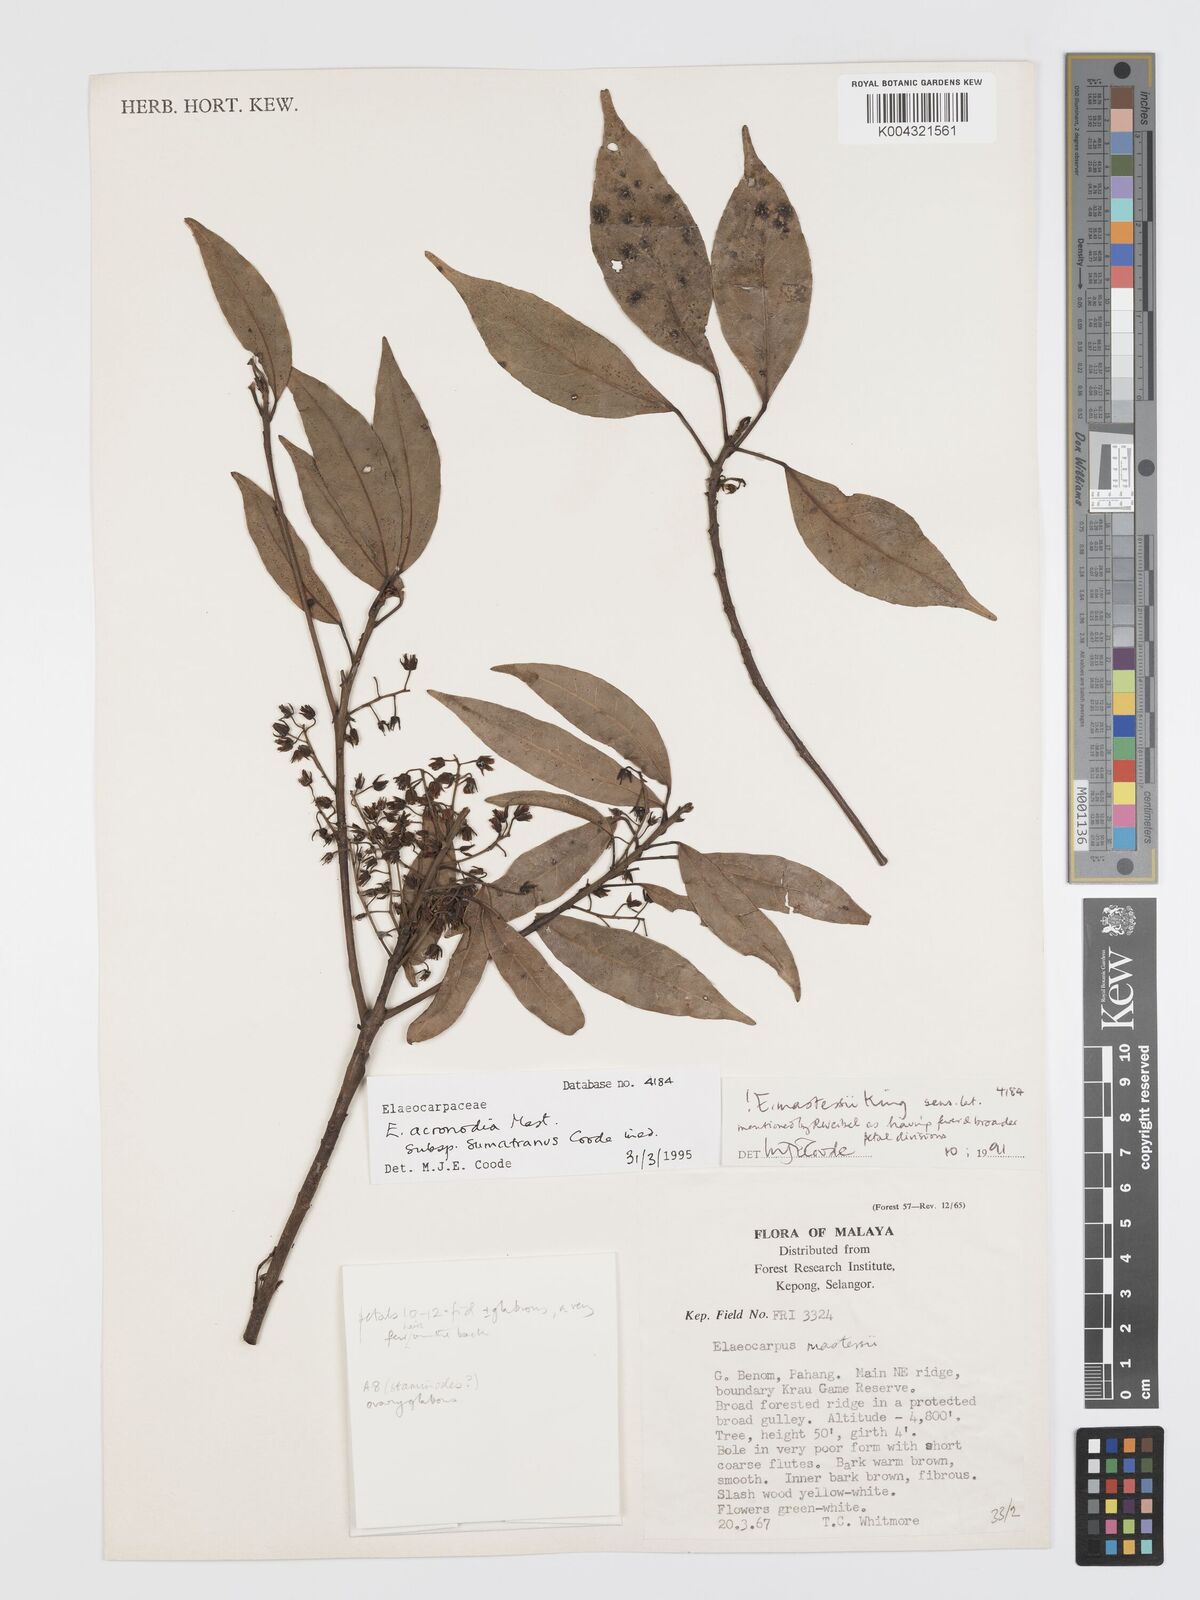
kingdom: Plantae
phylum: Tracheophyta
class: Magnoliopsida
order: Oxalidales
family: Elaeocarpaceae
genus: Elaeocarpus
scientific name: Elaeocarpus acronodia
